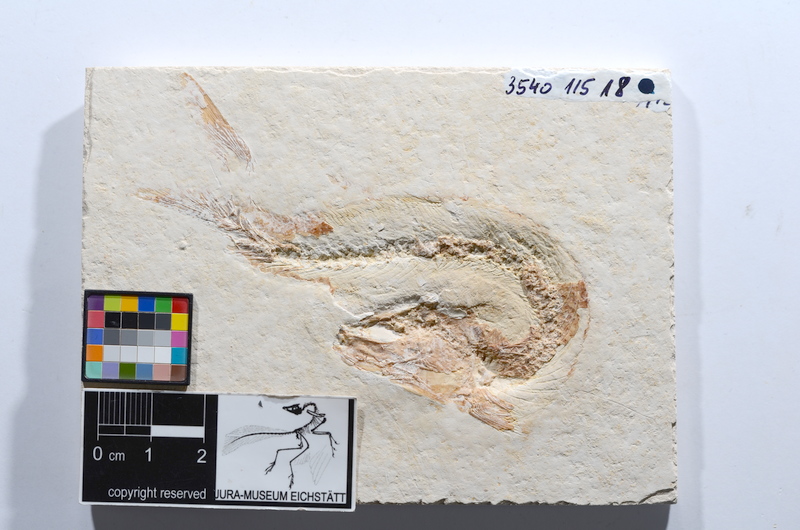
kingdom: Animalia
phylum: Chordata
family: Ascalaboidae
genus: Tharsis
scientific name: Tharsis dubius
